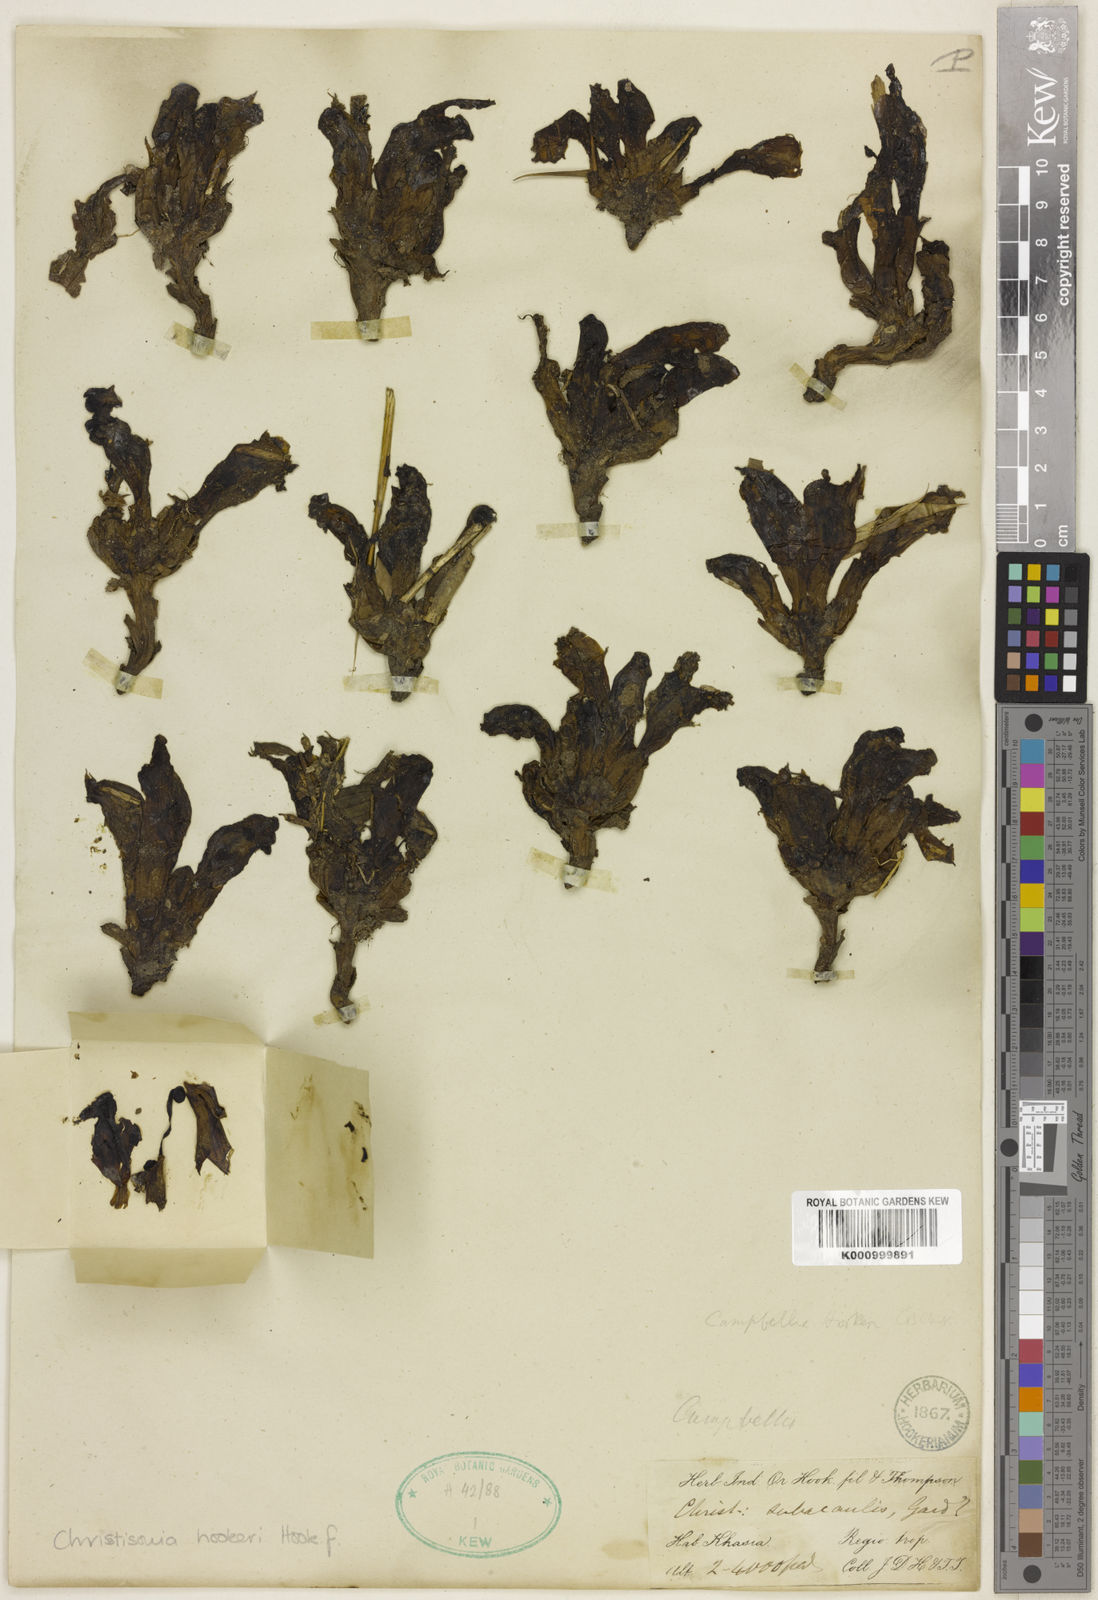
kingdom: Plantae
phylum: Tracheophyta
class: Magnoliopsida
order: Lamiales
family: Orobanchaceae
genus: Christisonia
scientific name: Christisonia
